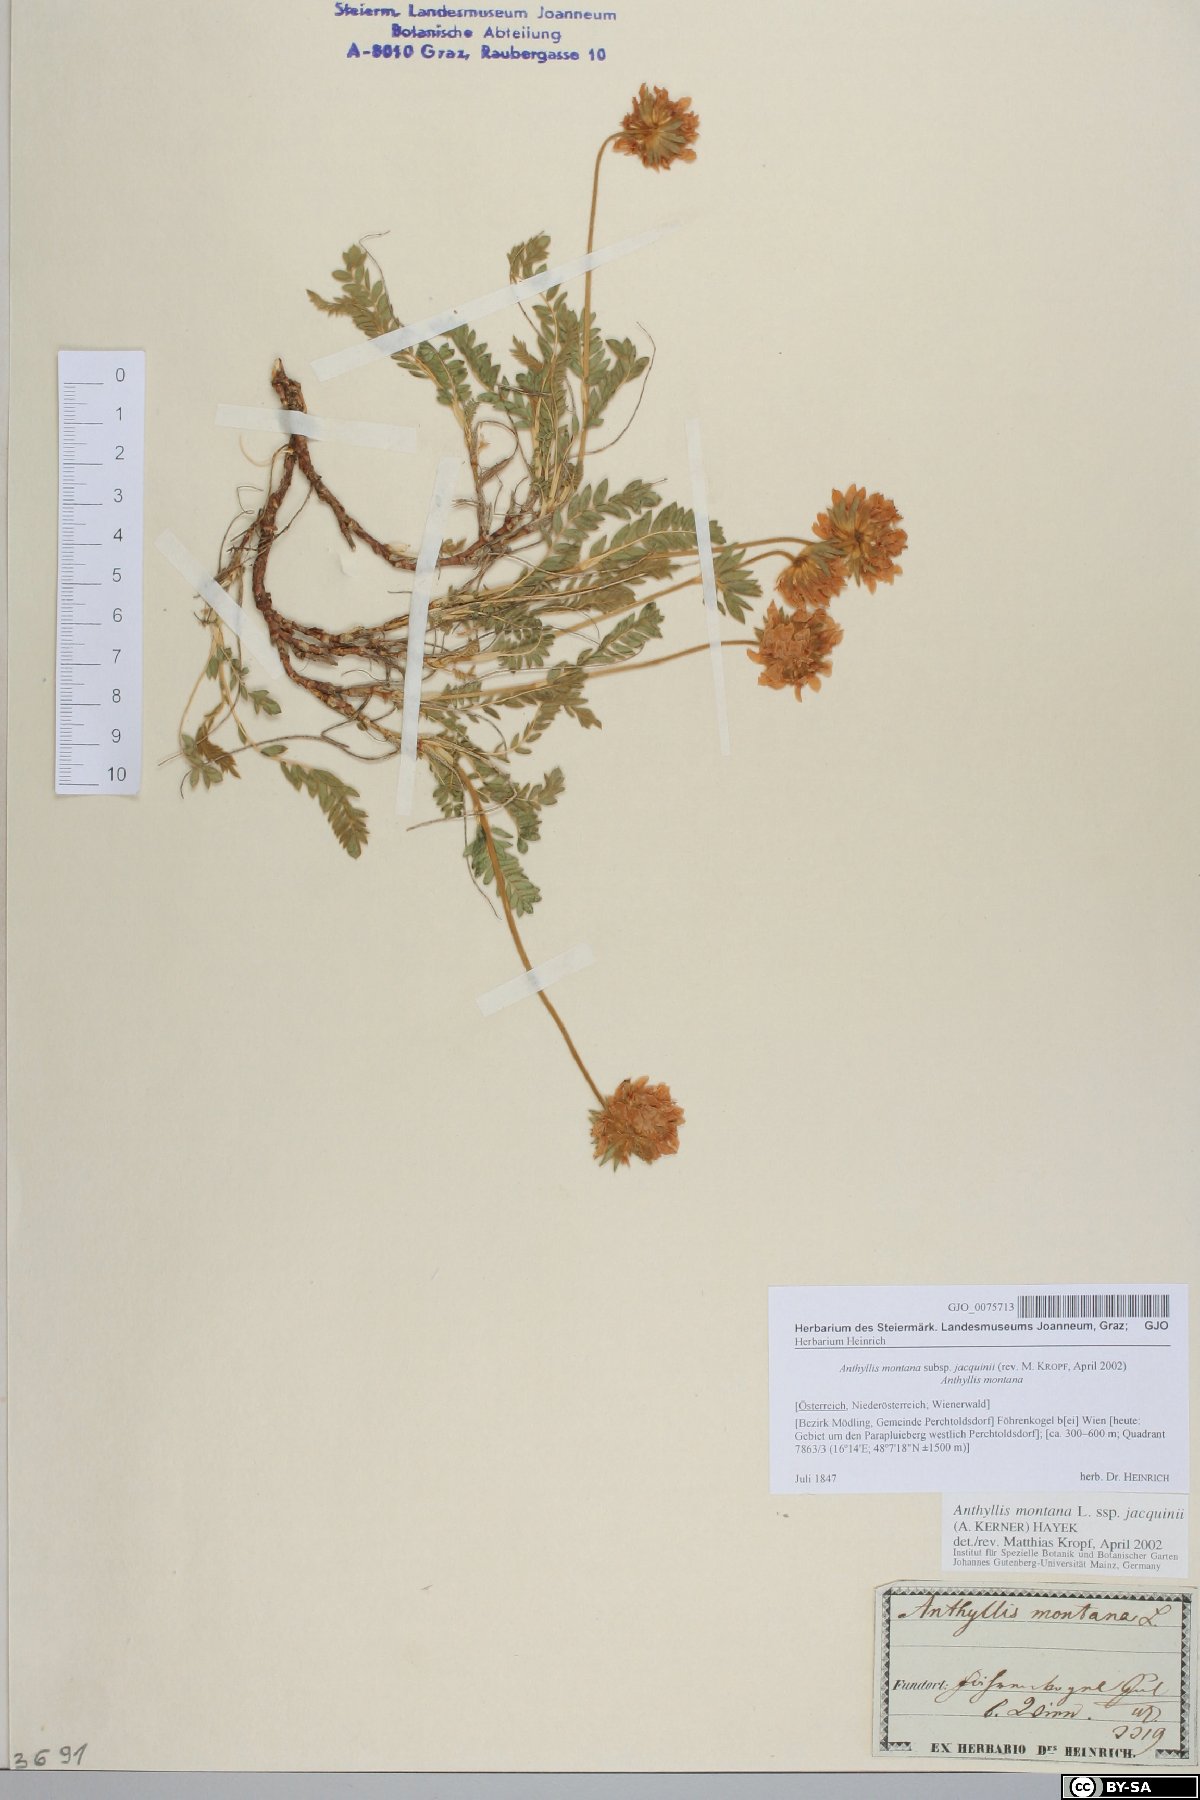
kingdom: Plantae
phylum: Tracheophyta
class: Magnoliopsida
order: Fabales
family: Fabaceae
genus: Anthyllis
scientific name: Anthyllis montana
